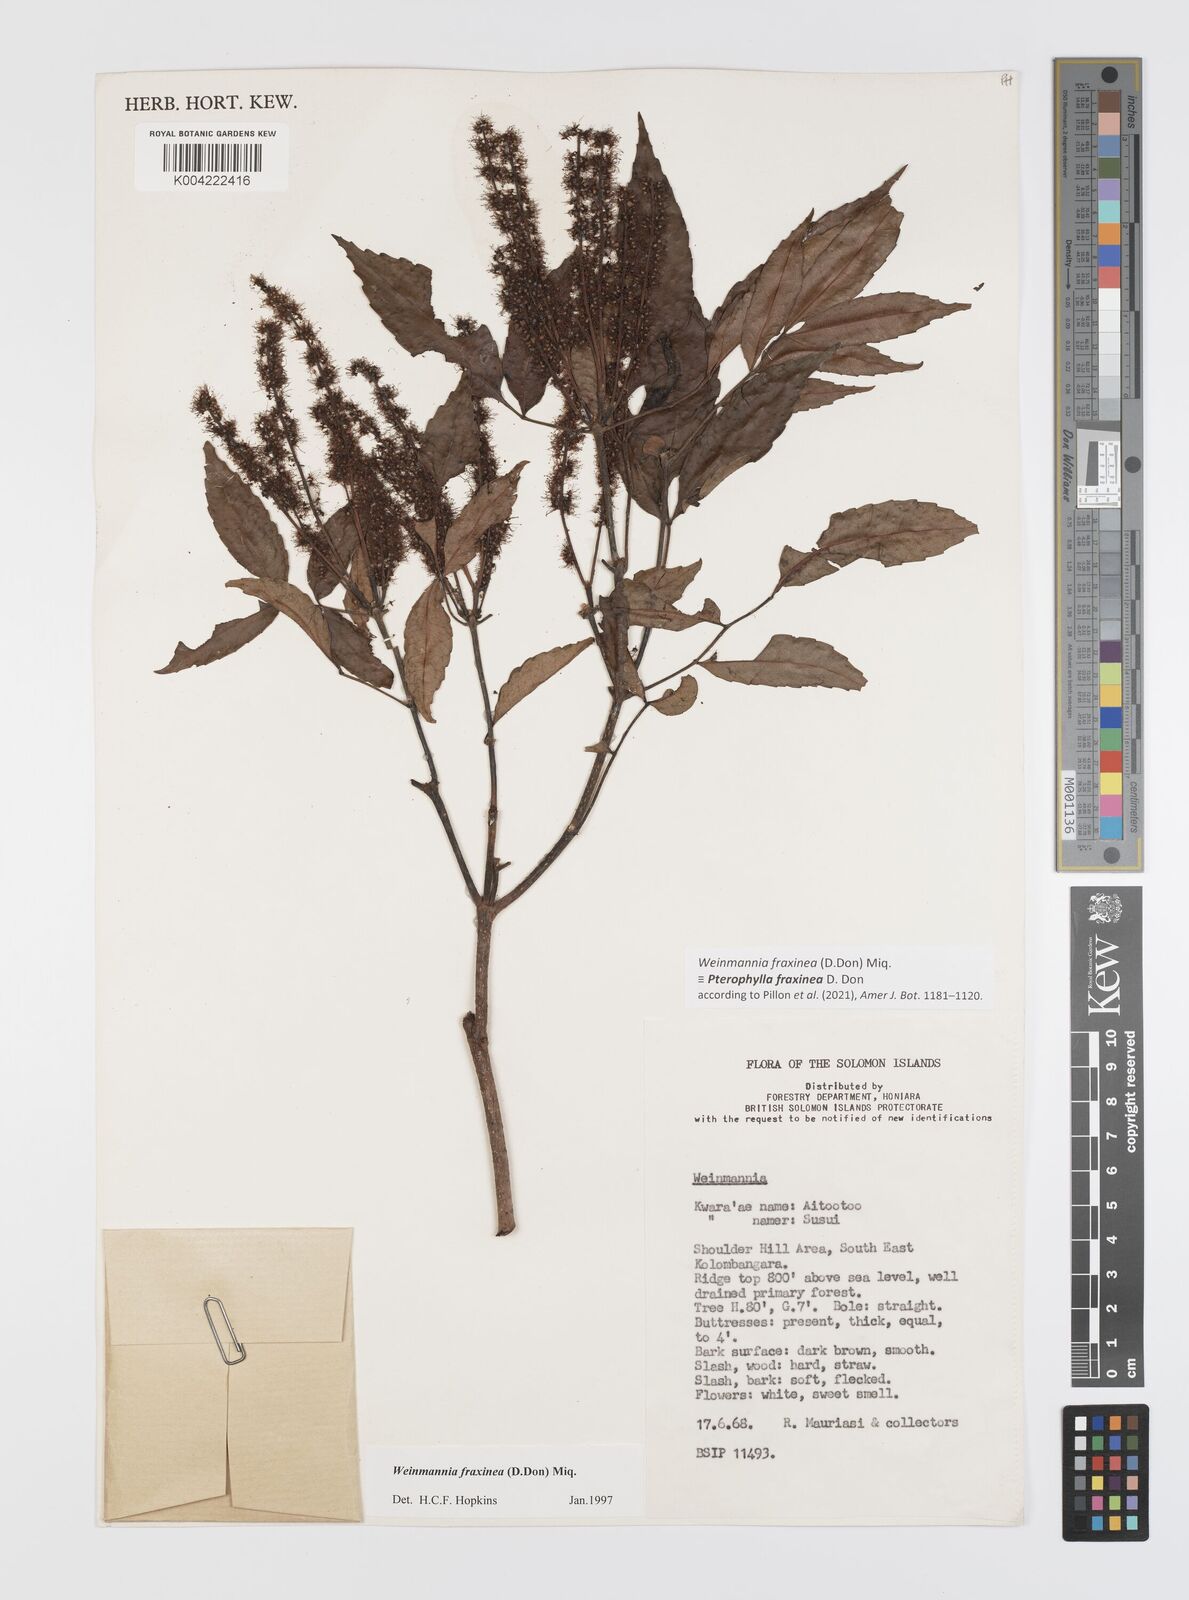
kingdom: Plantae
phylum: Tracheophyta
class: Magnoliopsida
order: Oxalidales
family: Cunoniaceae
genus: Pterophylla
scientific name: Pterophylla fraxinea
